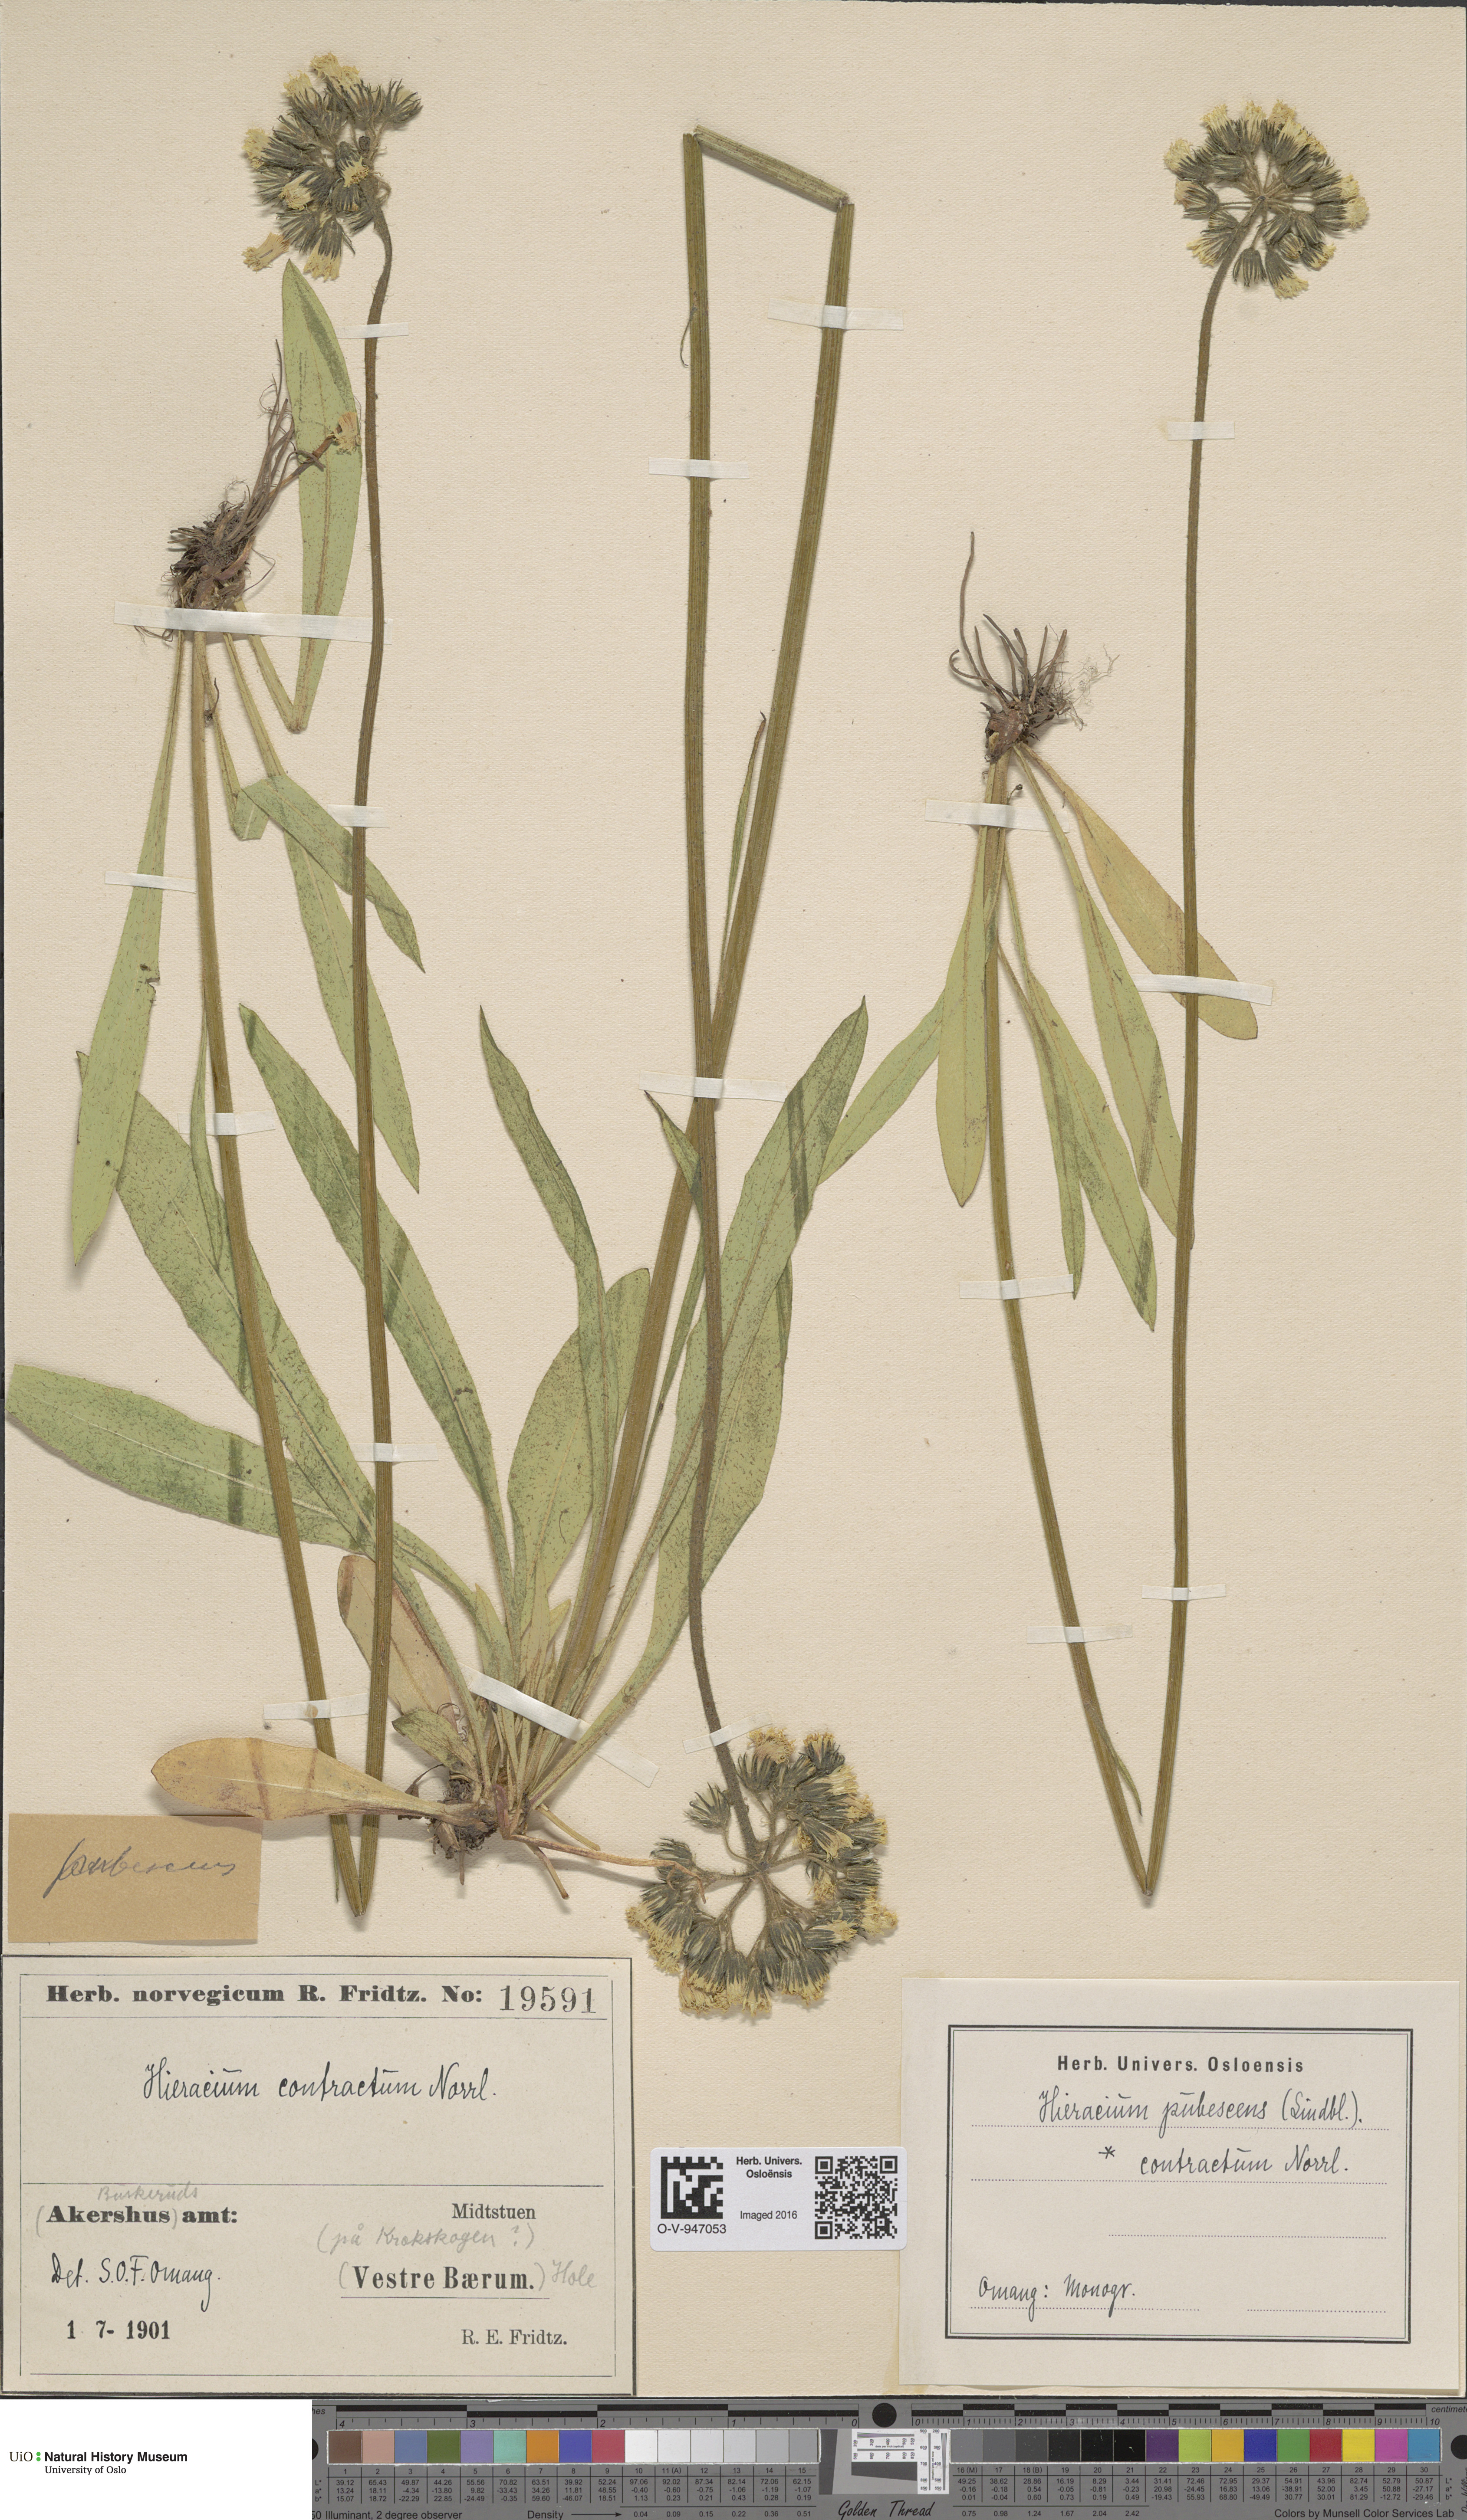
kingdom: Plantae
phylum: Tracheophyta
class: Magnoliopsida
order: Asterales
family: Asteraceae
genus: Pilosella
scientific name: Pilosella cymosa
